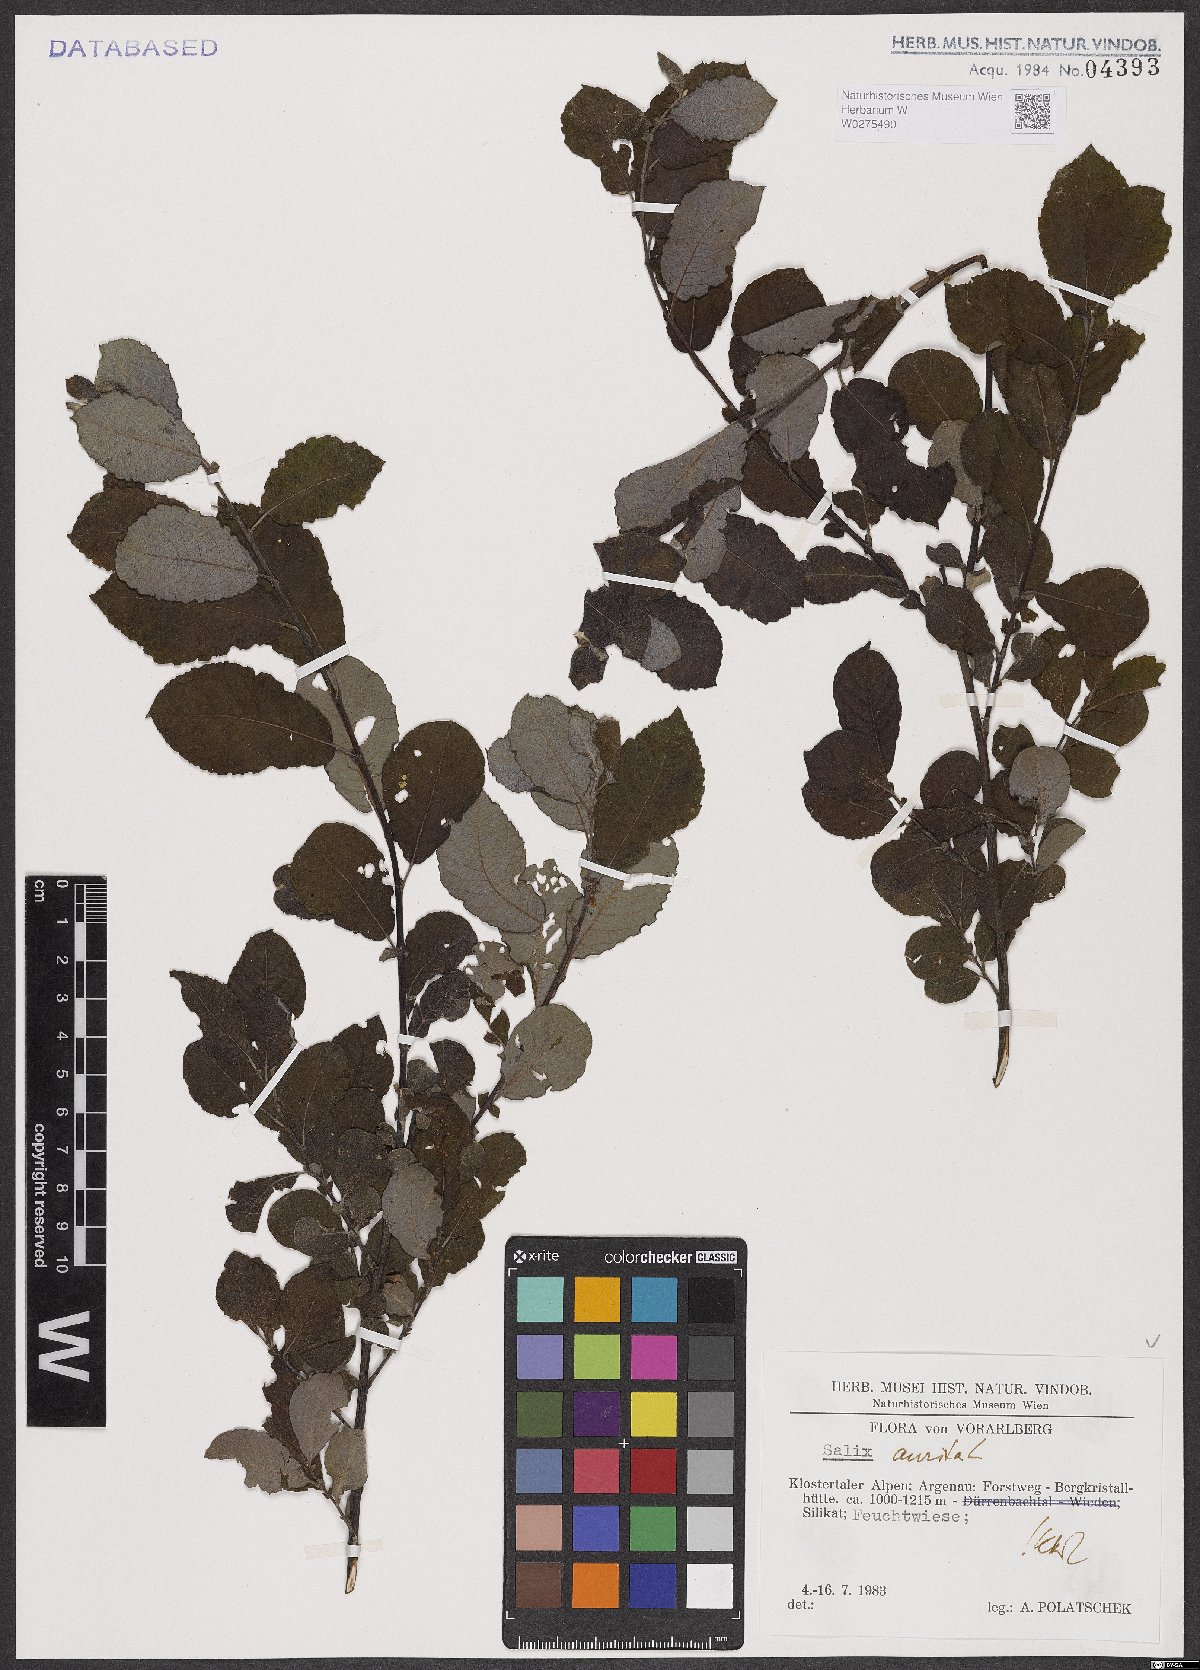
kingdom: Plantae
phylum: Tracheophyta
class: Magnoliopsida
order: Malpighiales
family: Salicaceae
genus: Salix
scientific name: Salix aurita
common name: Eared willow
